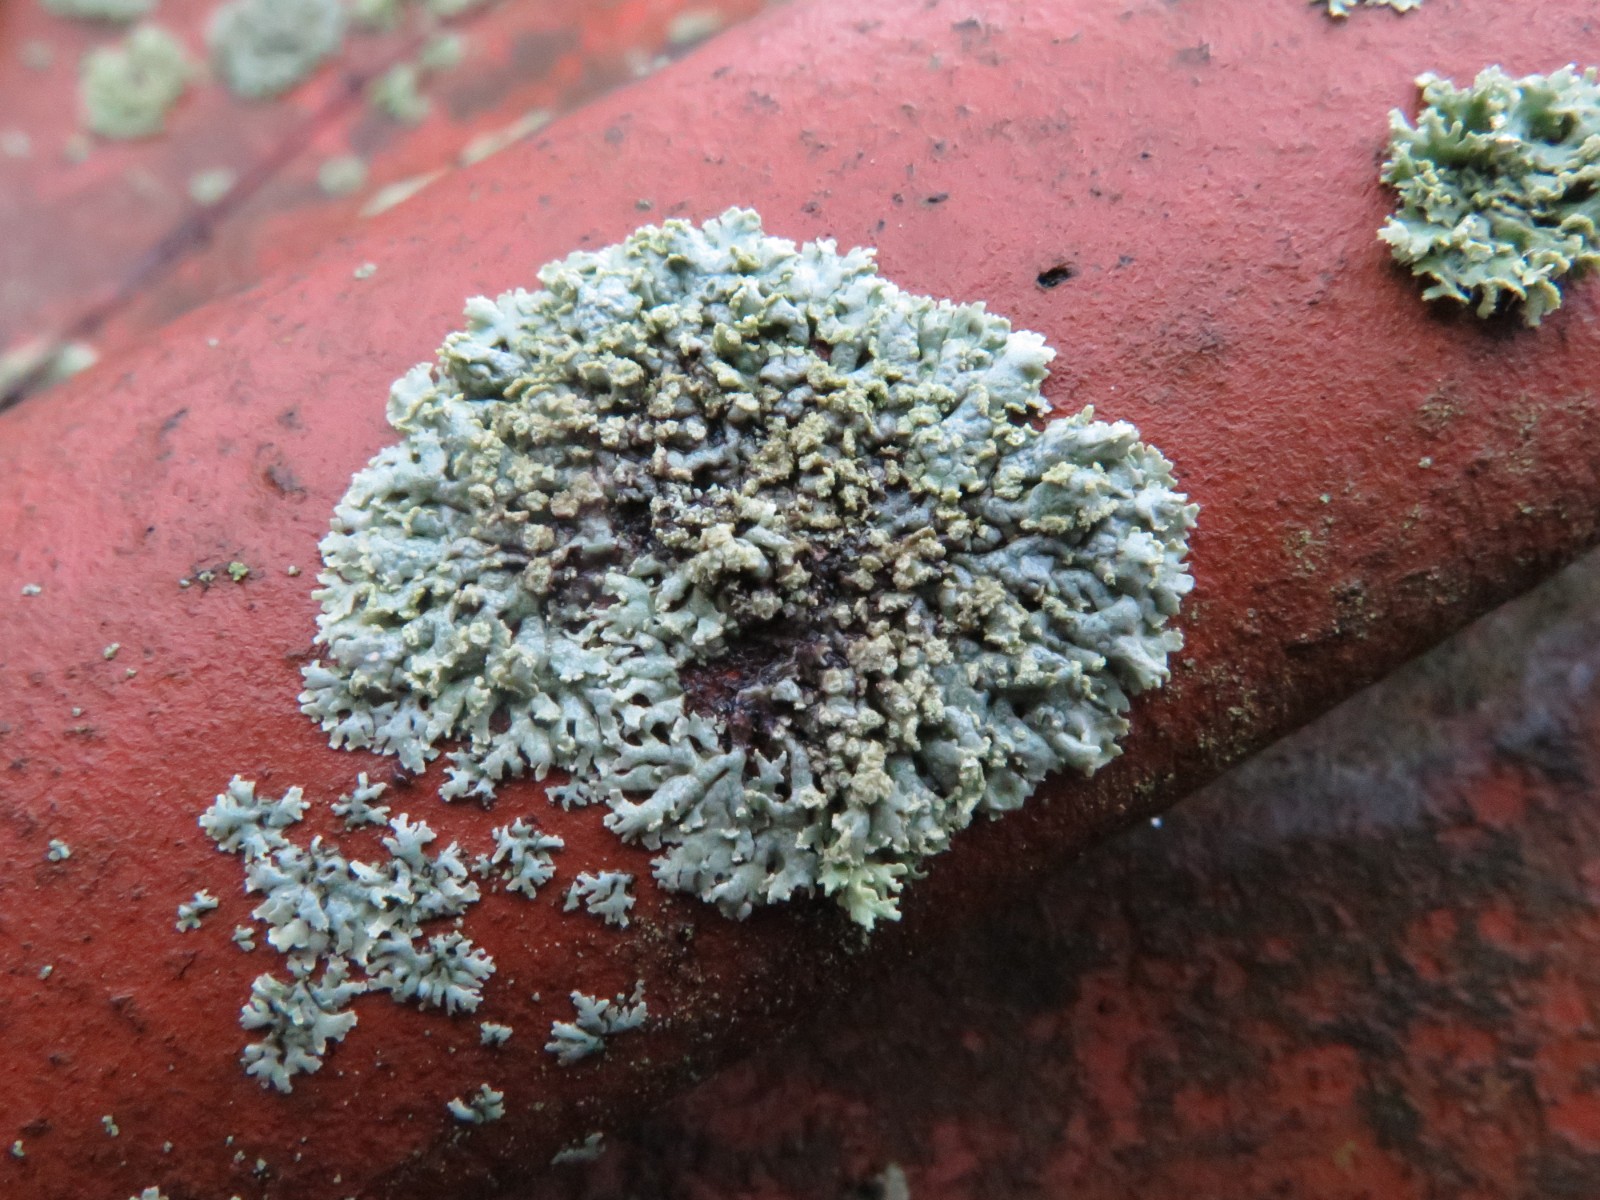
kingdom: Fungi
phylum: Ascomycota
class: Lecanoromycetes
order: Caliciales
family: Physciaceae
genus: Phaeophyscia
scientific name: Phaeophyscia orbicularis
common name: grågrøn rosetlav
